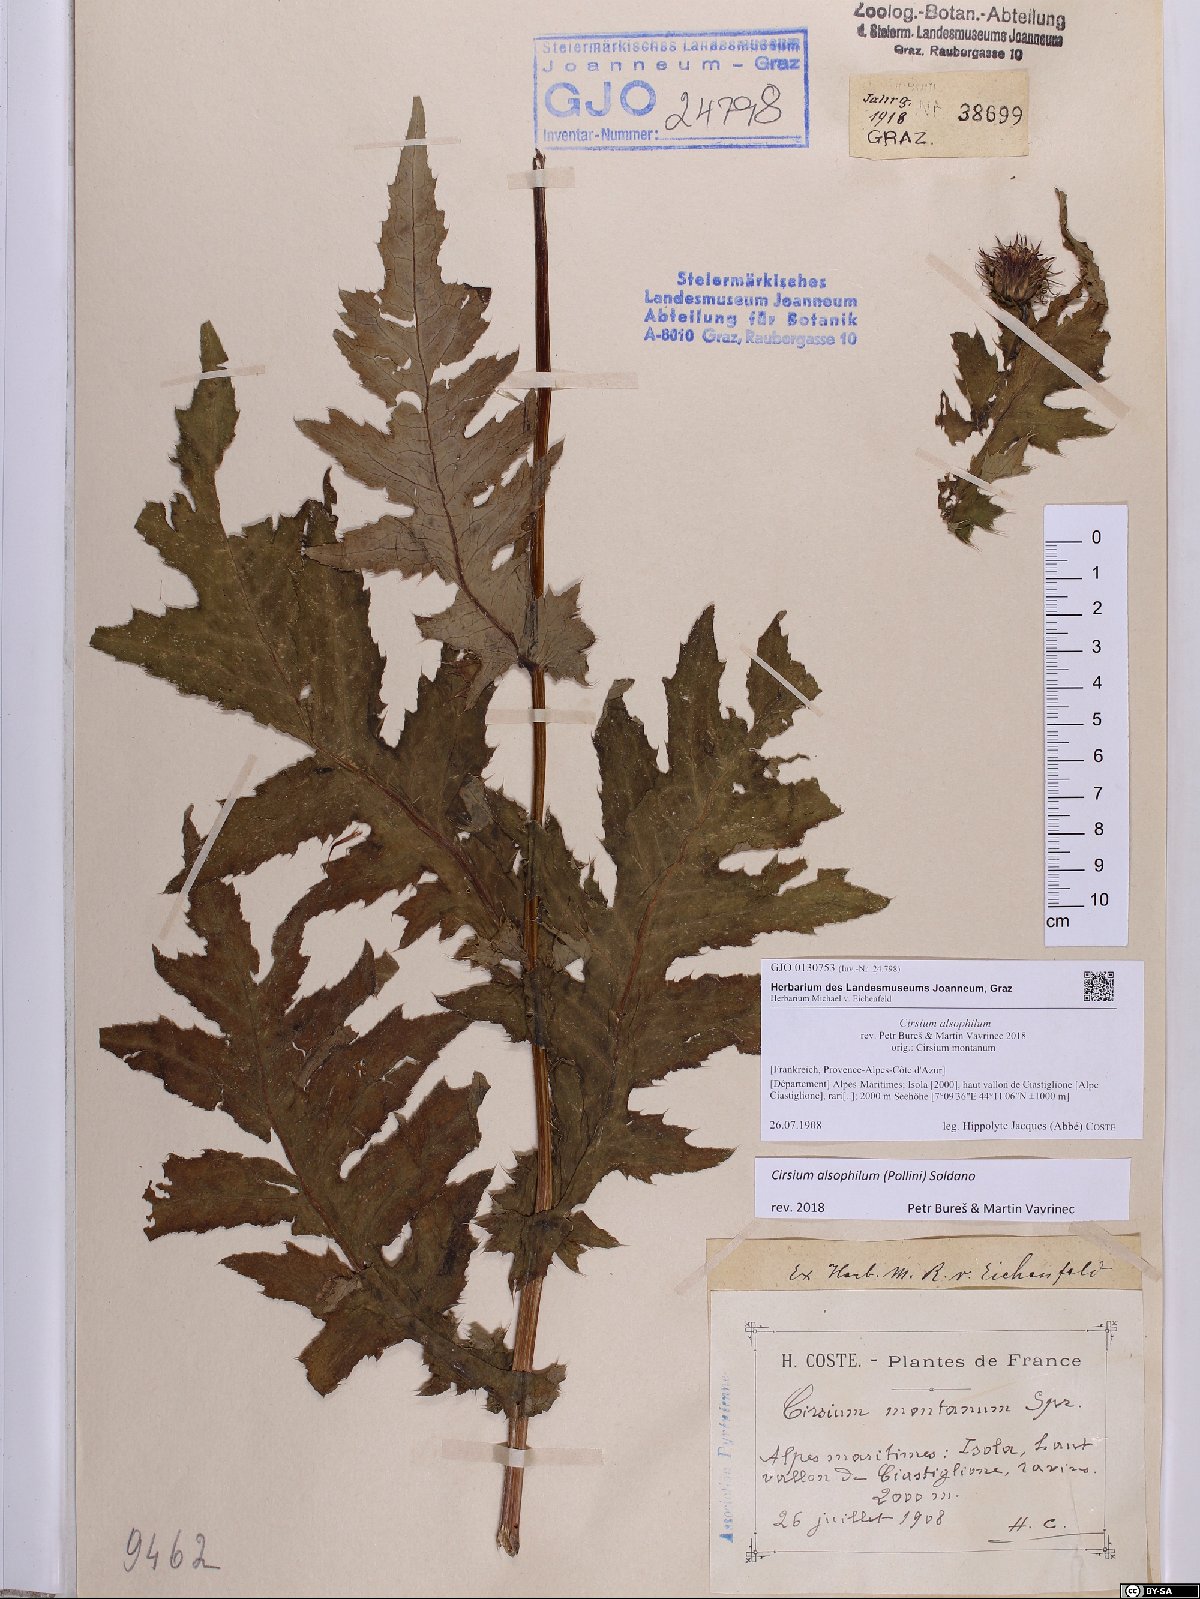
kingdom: Plantae
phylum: Tracheophyta
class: Magnoliopsida
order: Asterales
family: Asteraceae
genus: Cirsium
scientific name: Cirsium alsophilum
